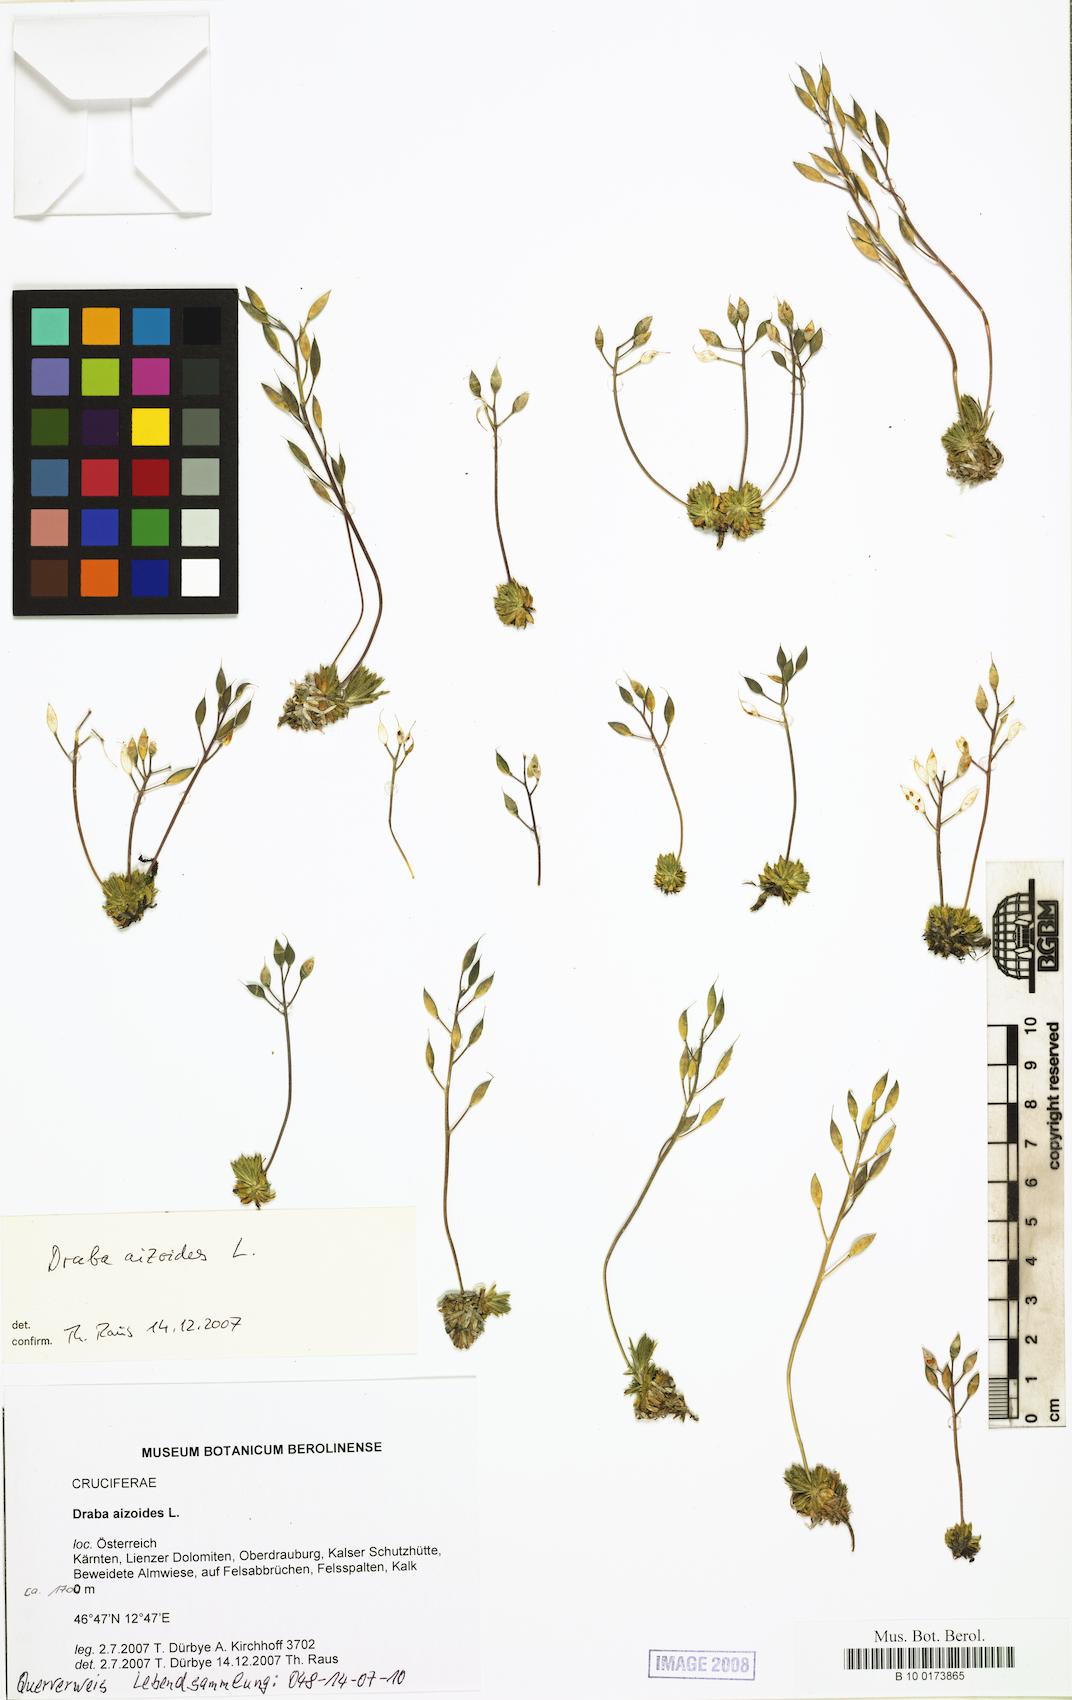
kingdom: Plantae
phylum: Tracheophyta
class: Magnoliopsida
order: Brassicales
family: Brassicaceae
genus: Draba
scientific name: Draba aizoides
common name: Yellow whitlowgrass
